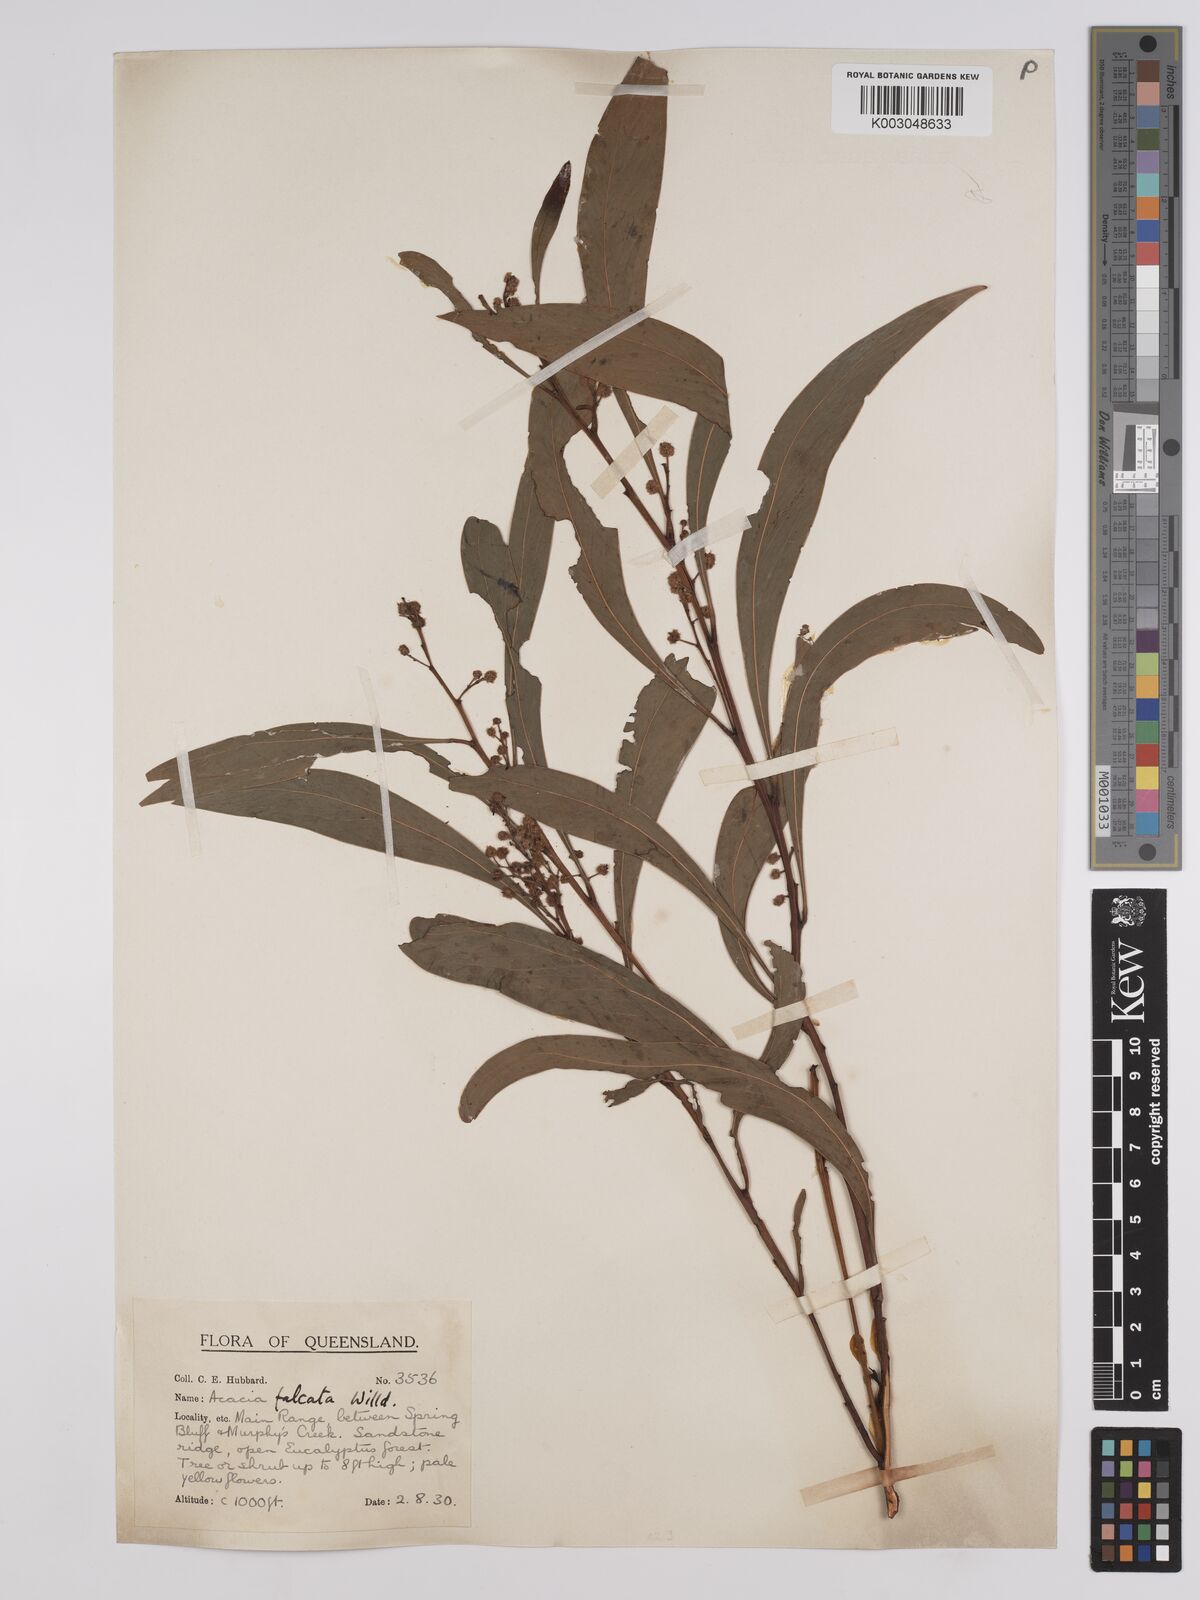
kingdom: Plantae
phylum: Tracheophyta
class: Magnoliopsida
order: Fabales
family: Fabaceae
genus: Acacia
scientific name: Acacia falcata
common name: Burra acacia
